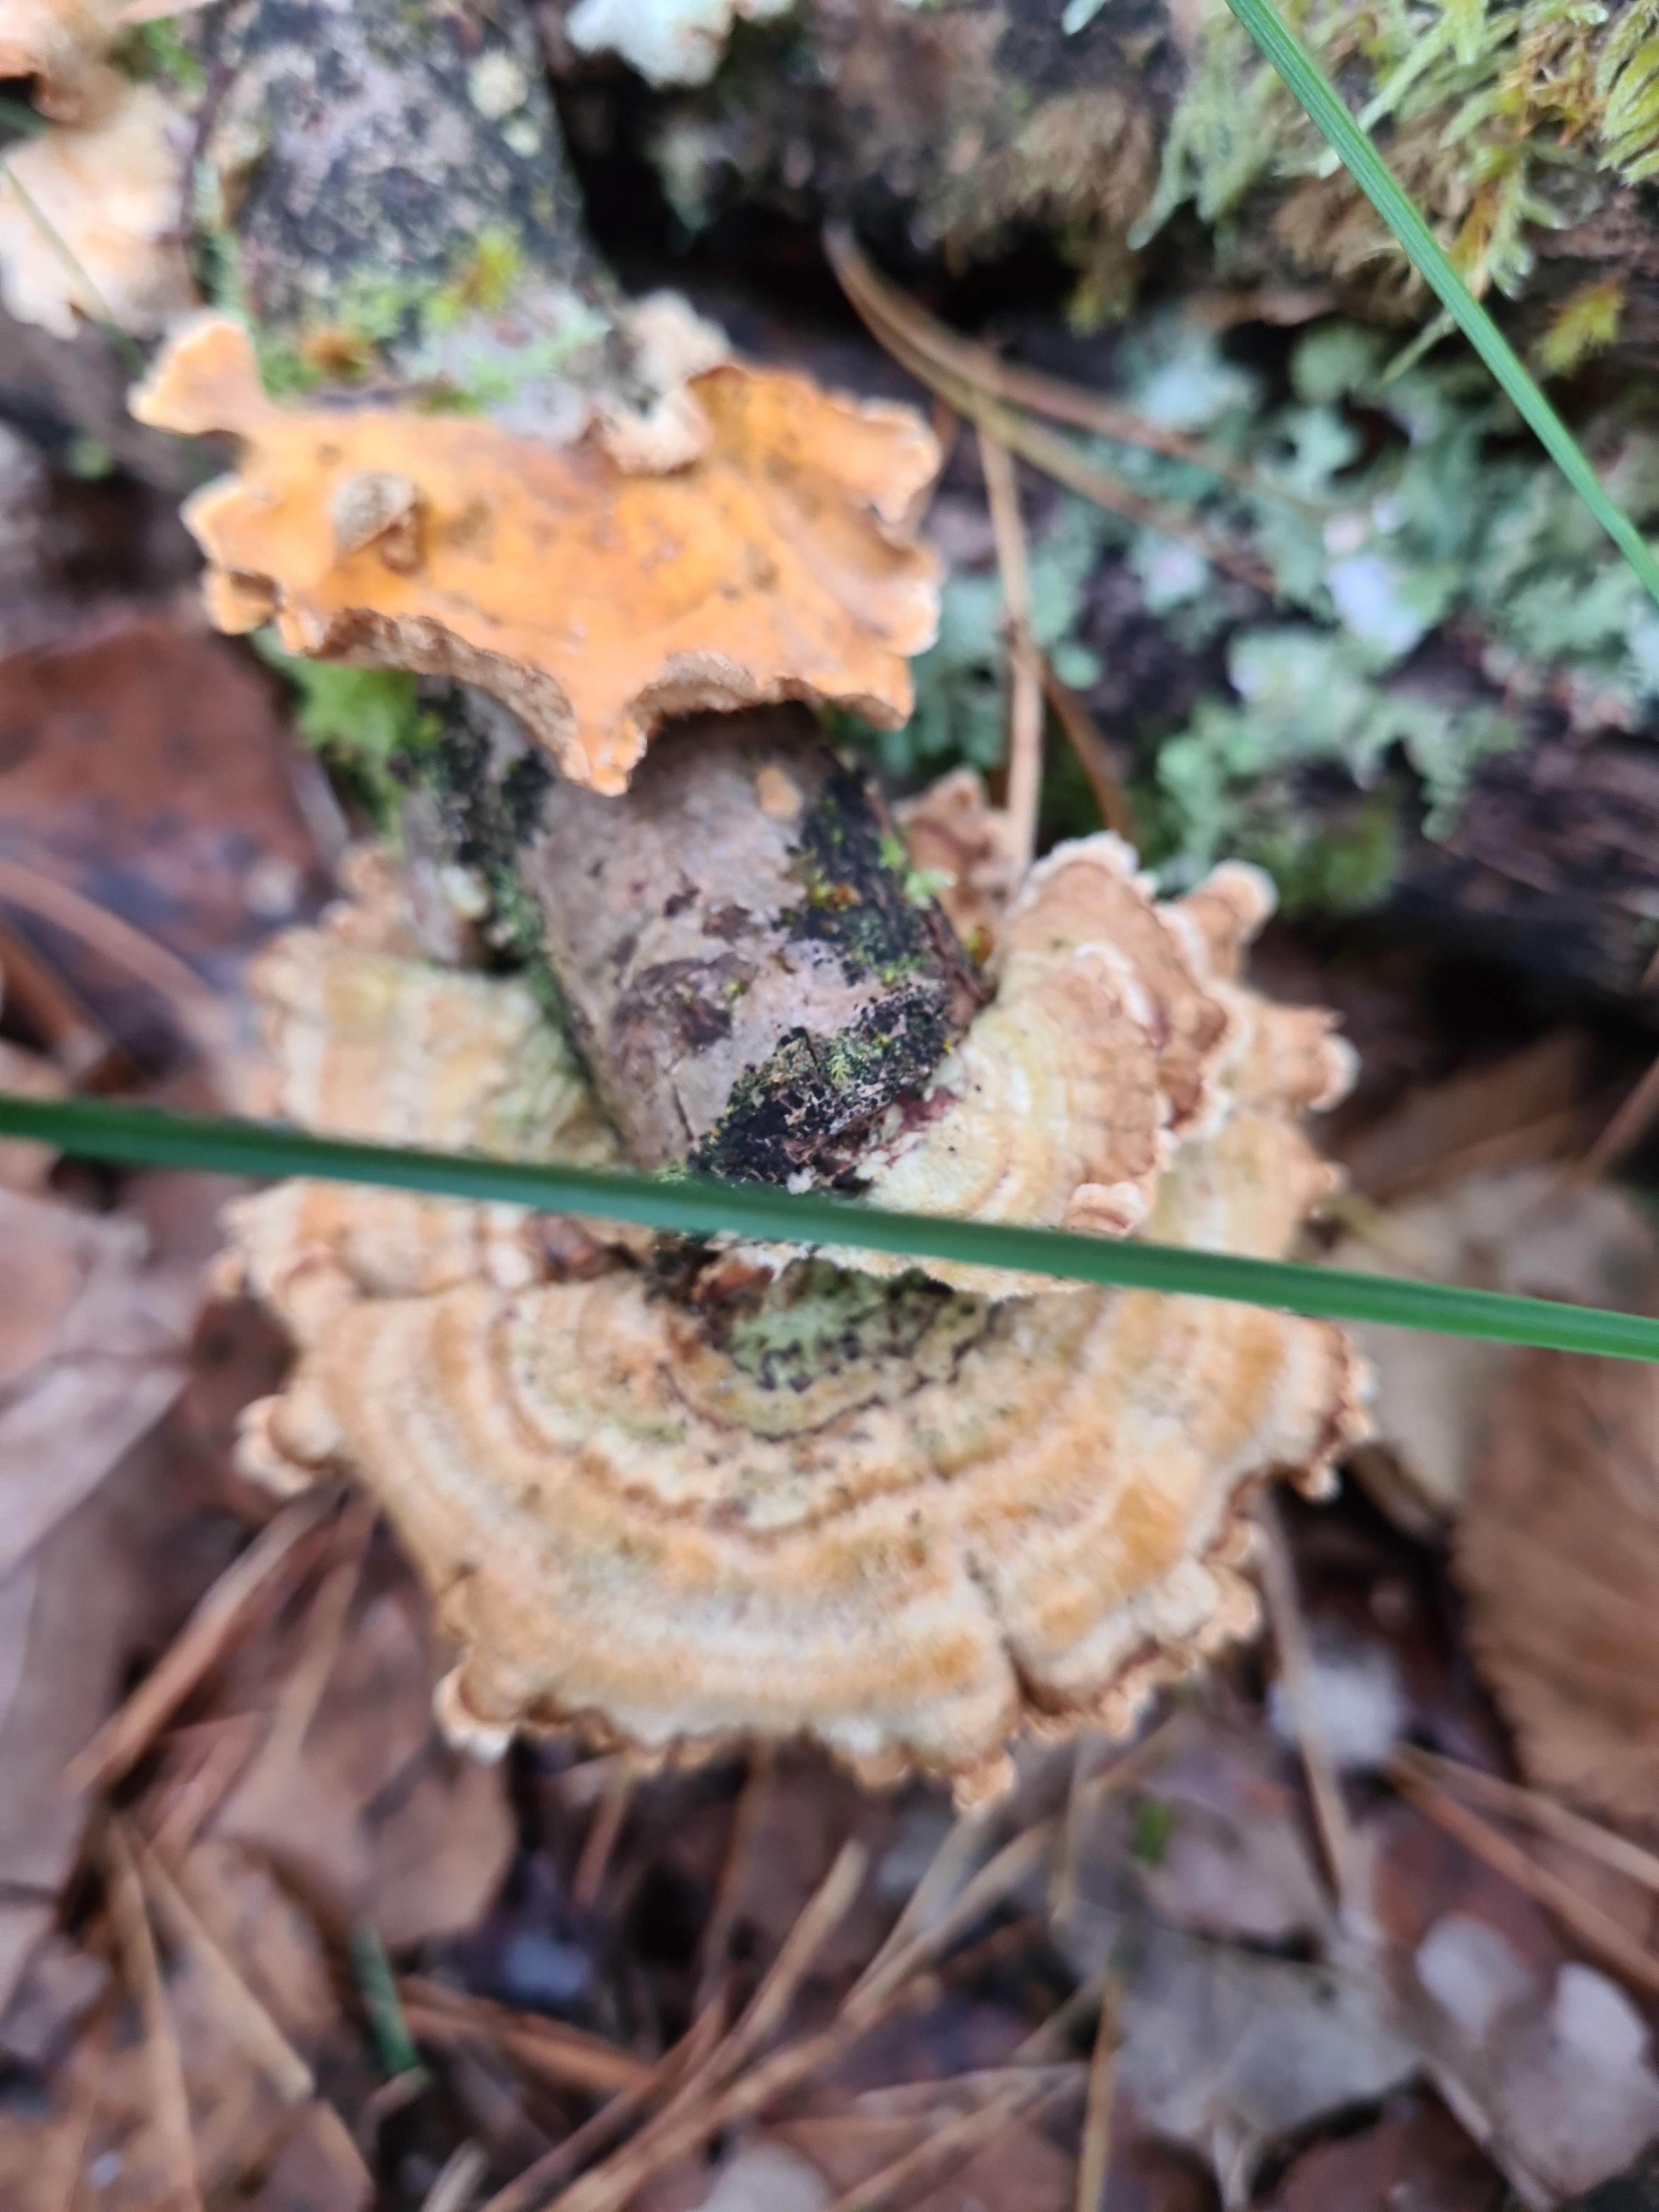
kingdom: Fungi
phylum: Basidiomycota
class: Agaricomycetes
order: Russulales
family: Stereaceae
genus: Stereum
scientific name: Stereum hirsutum
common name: håret lædersvamp
